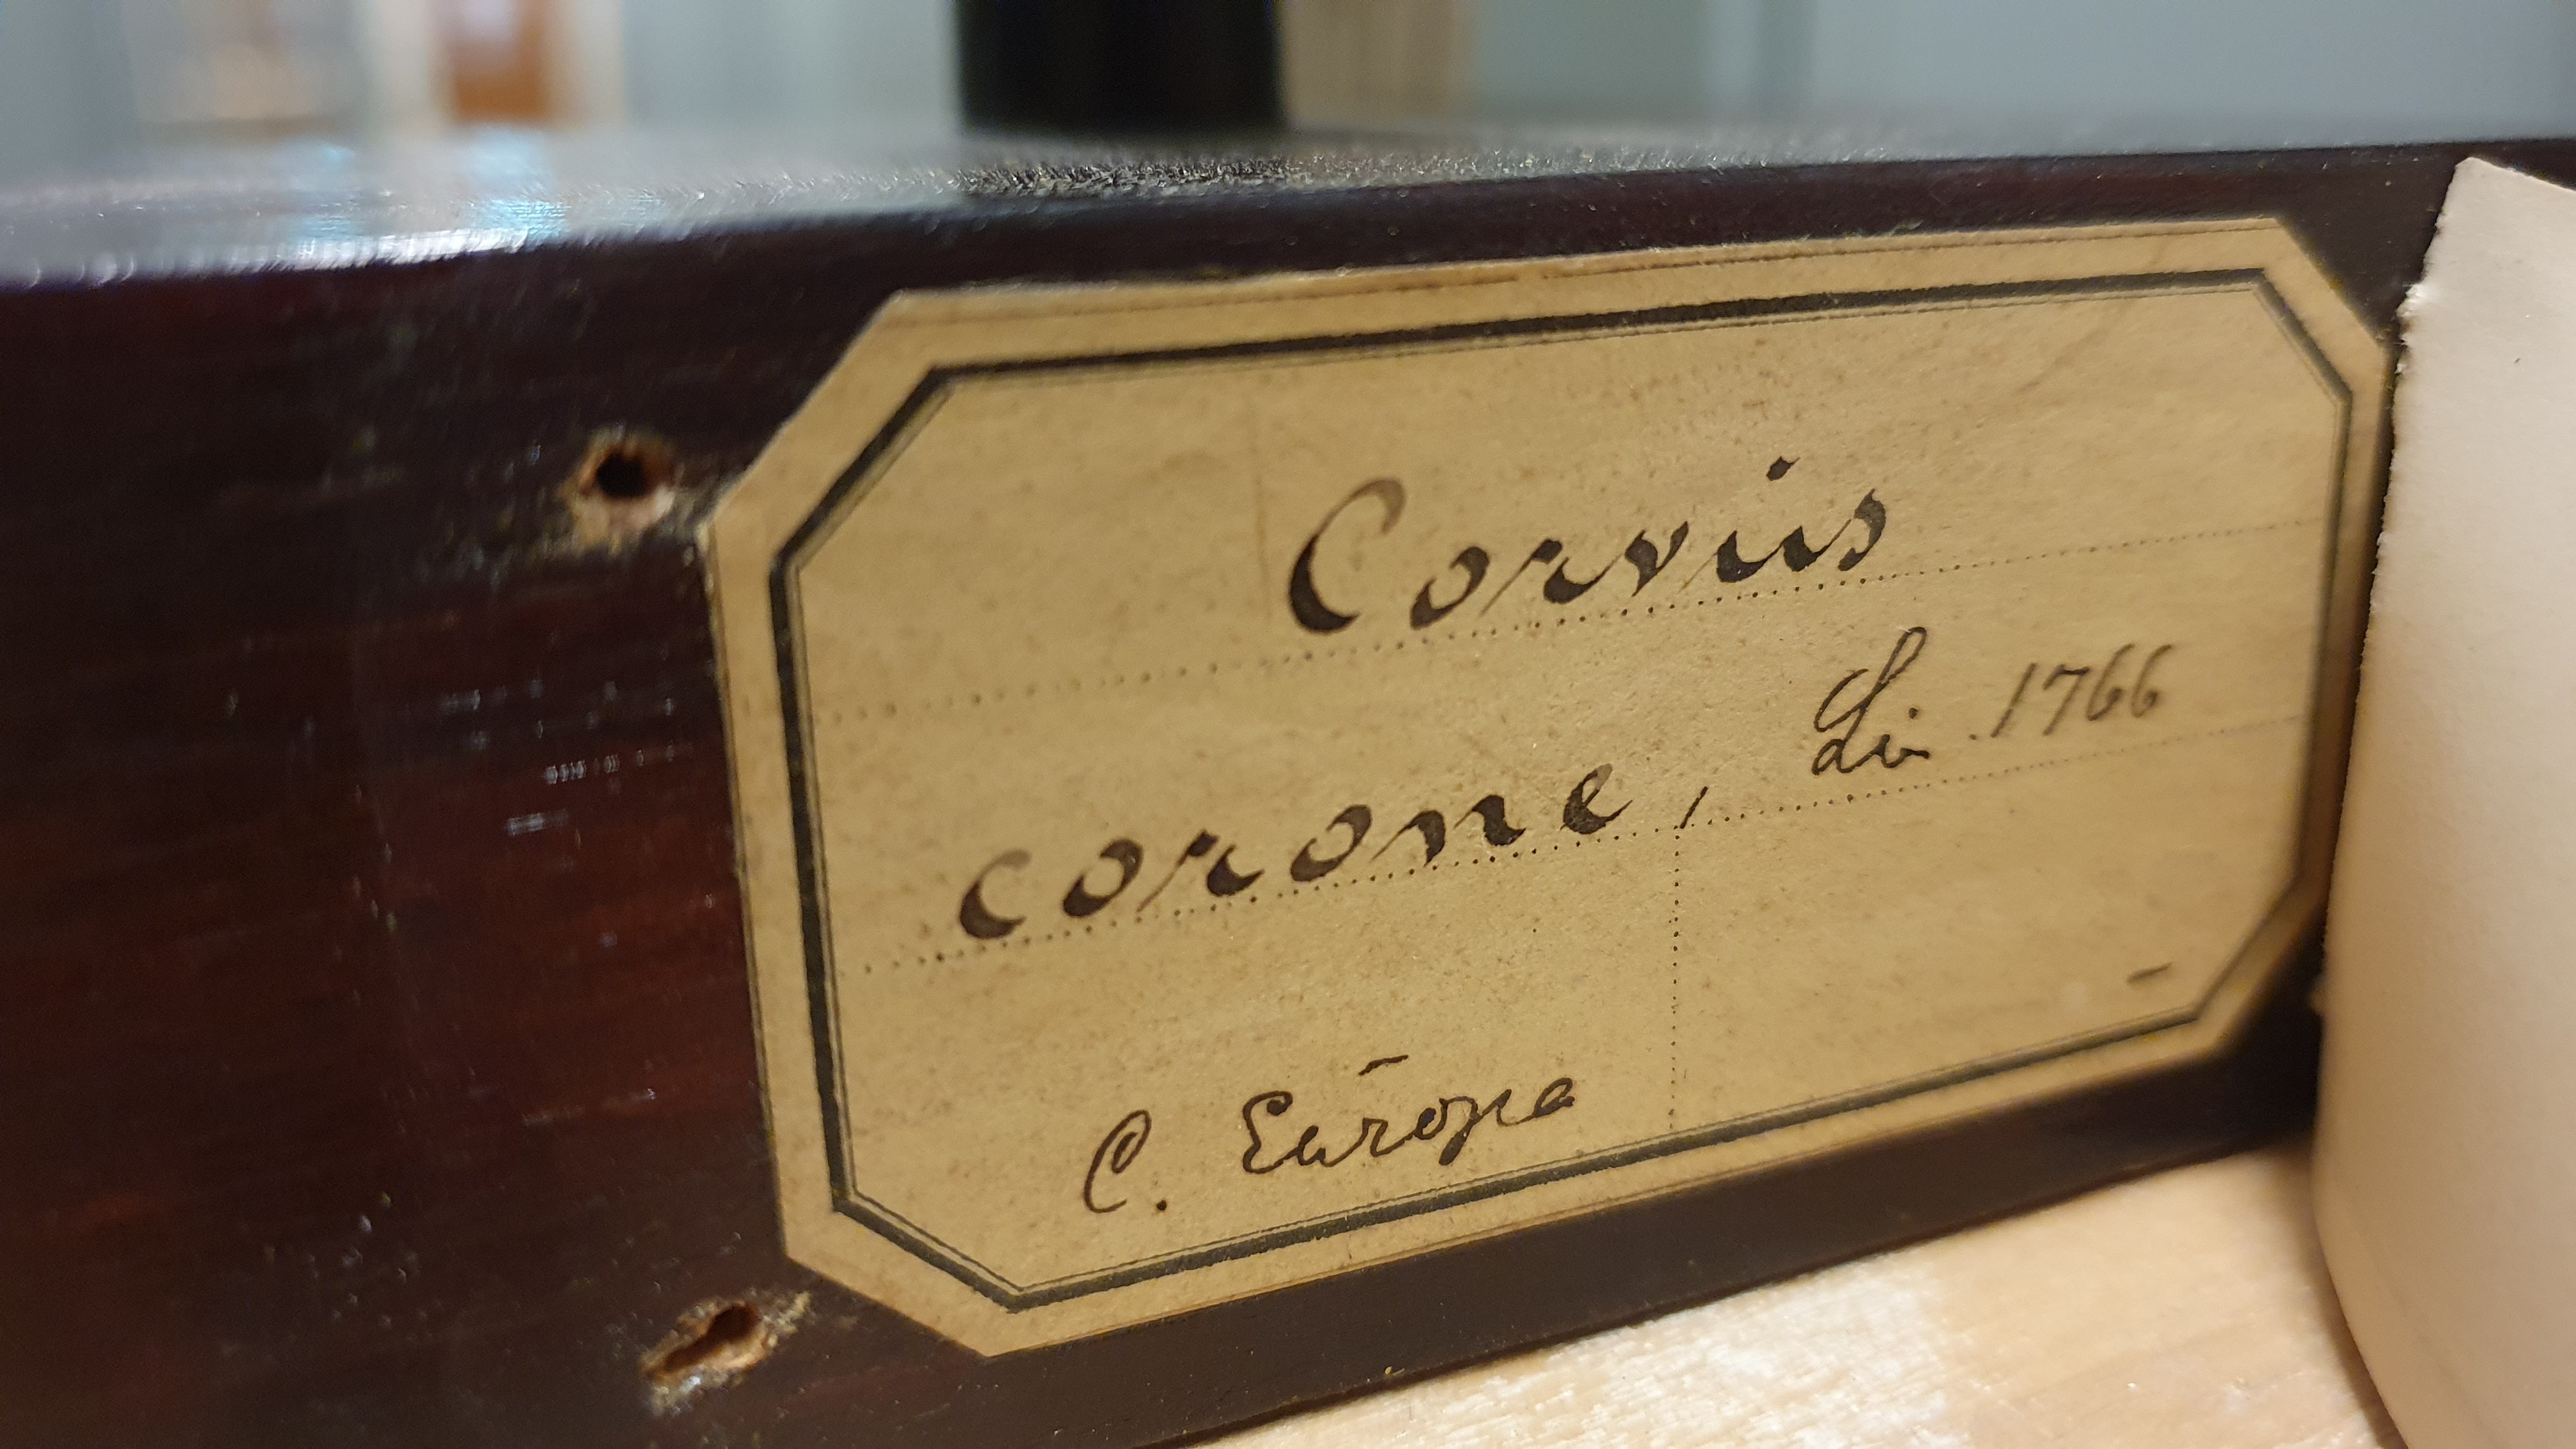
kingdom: Animalia
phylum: Chordata
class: Aves
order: Passeriformes
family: Corvidae
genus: Corvus
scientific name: Corvus corone
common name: Carrion crow
